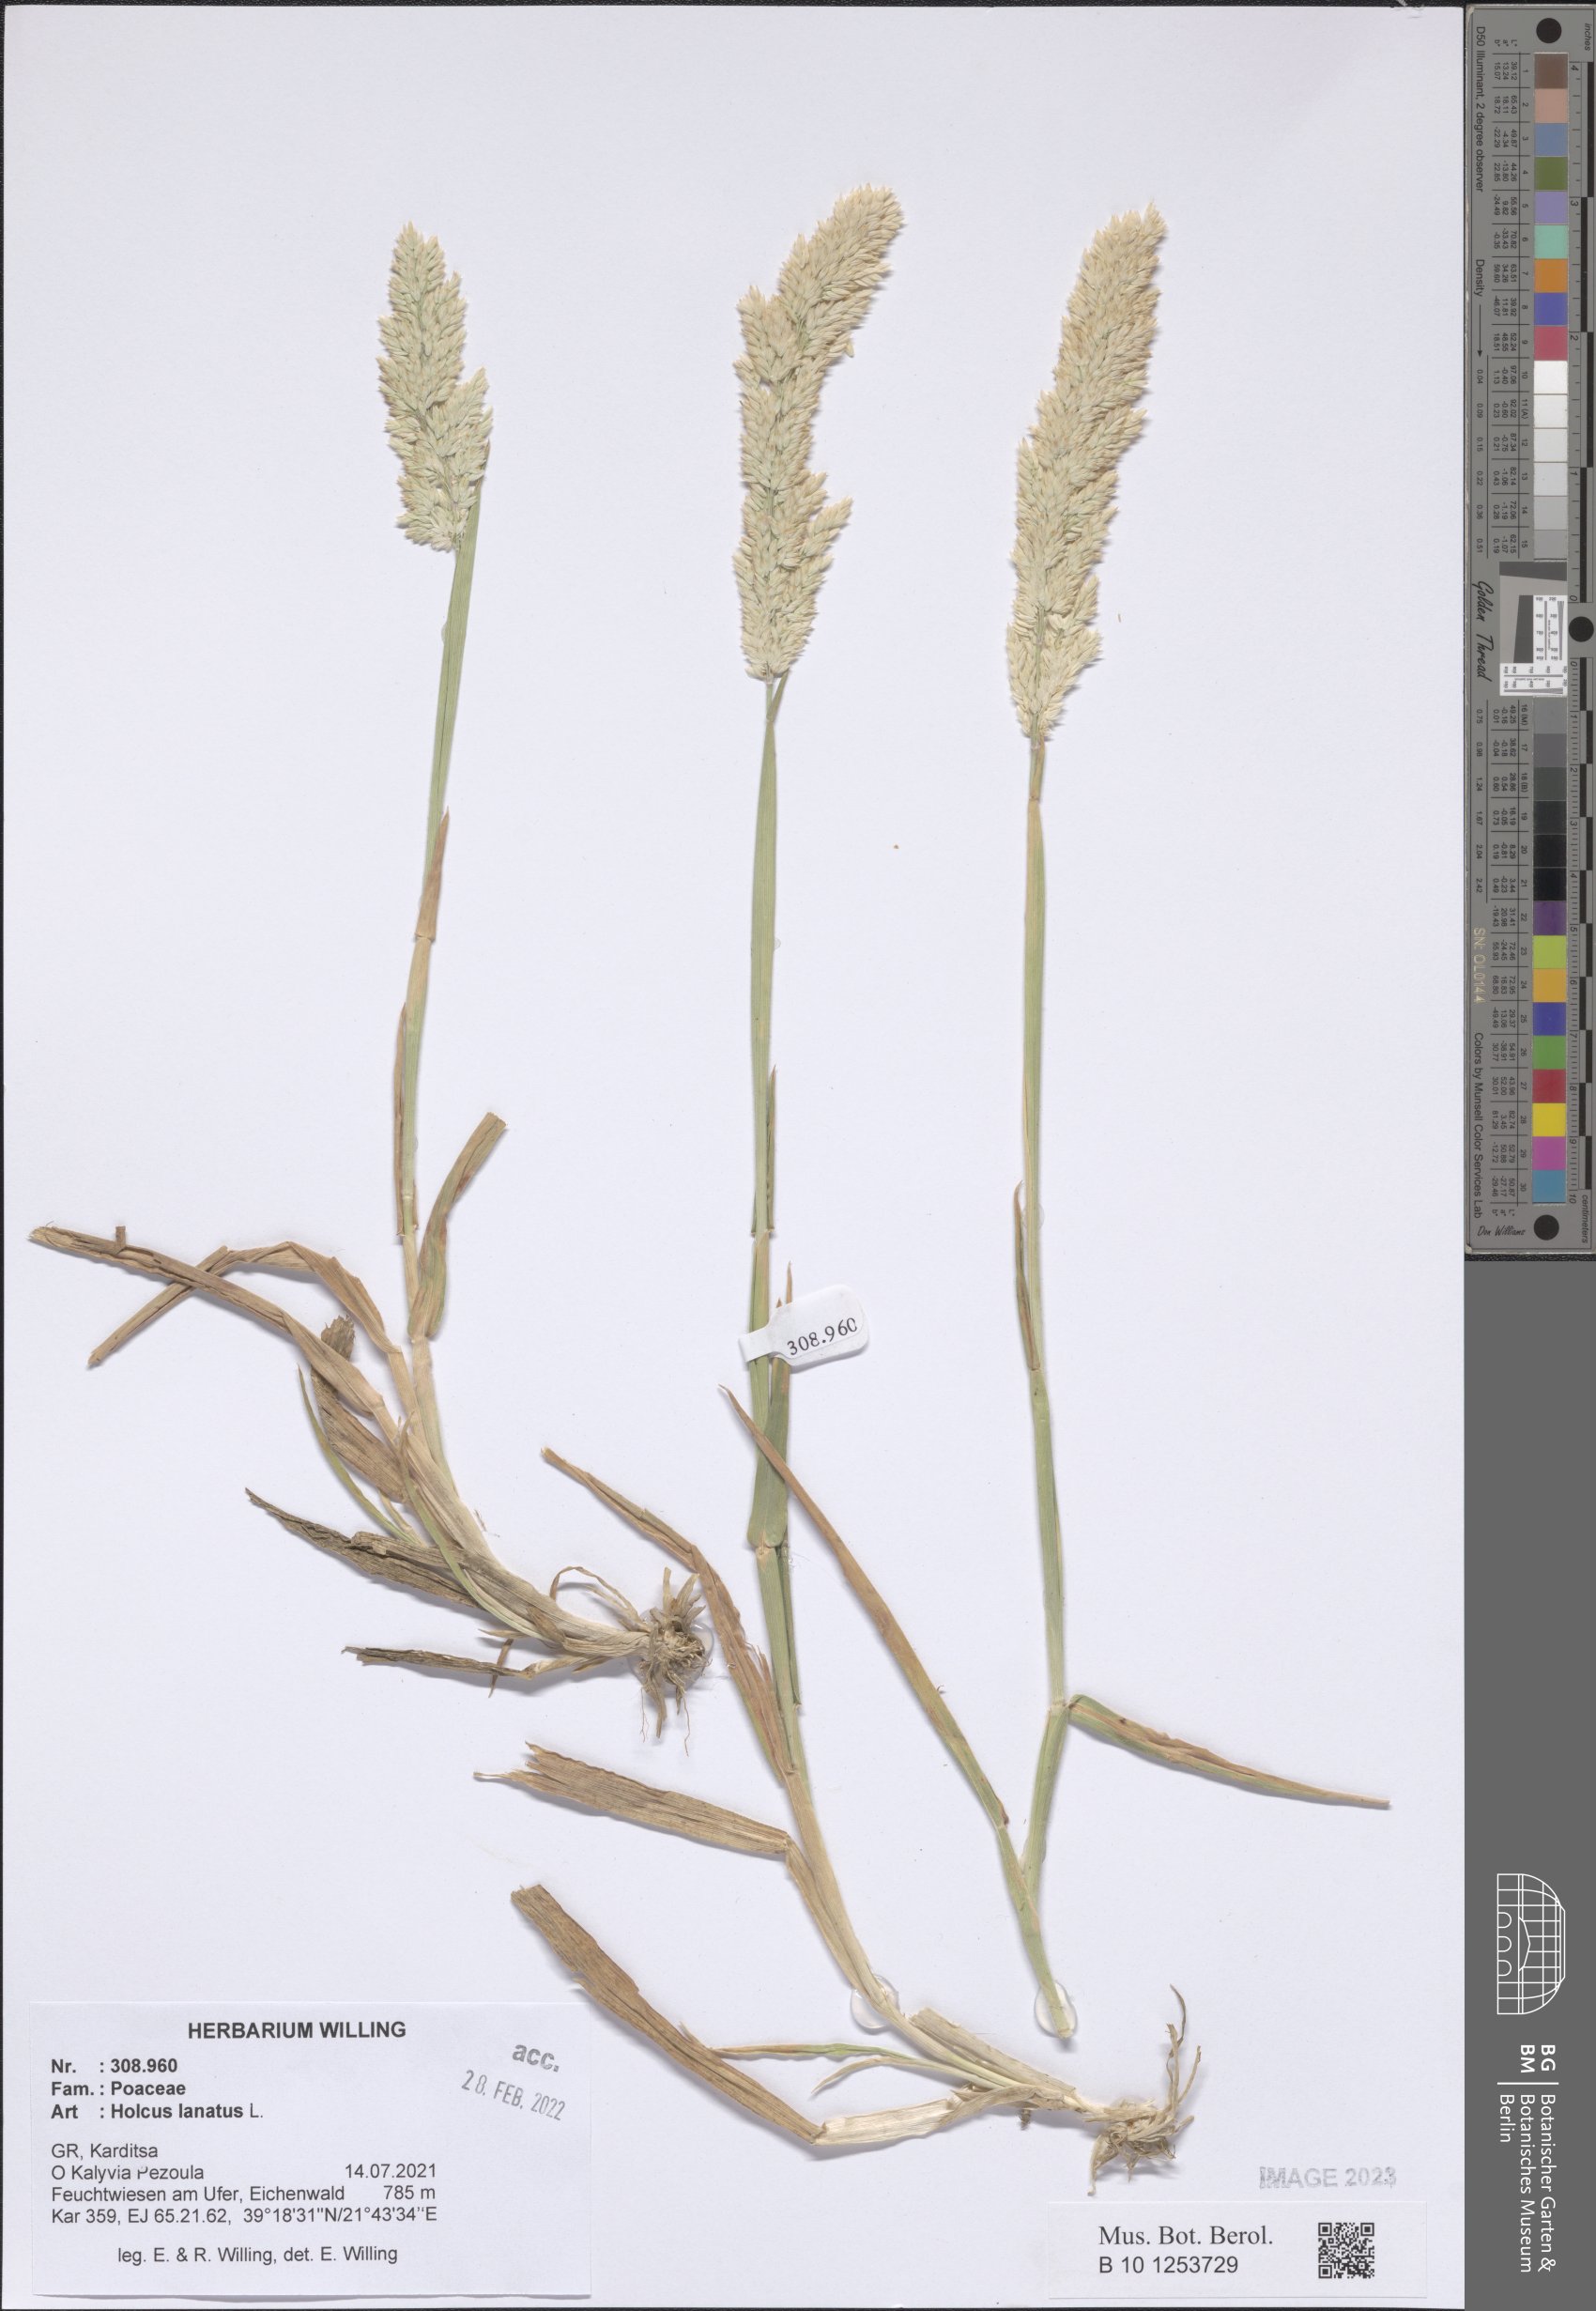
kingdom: Plantae
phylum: Tracheophyta
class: Liliopsida
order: Poales
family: Poaceae
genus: Holcus
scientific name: Holcus lanatus
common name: Yorkshire-fog
